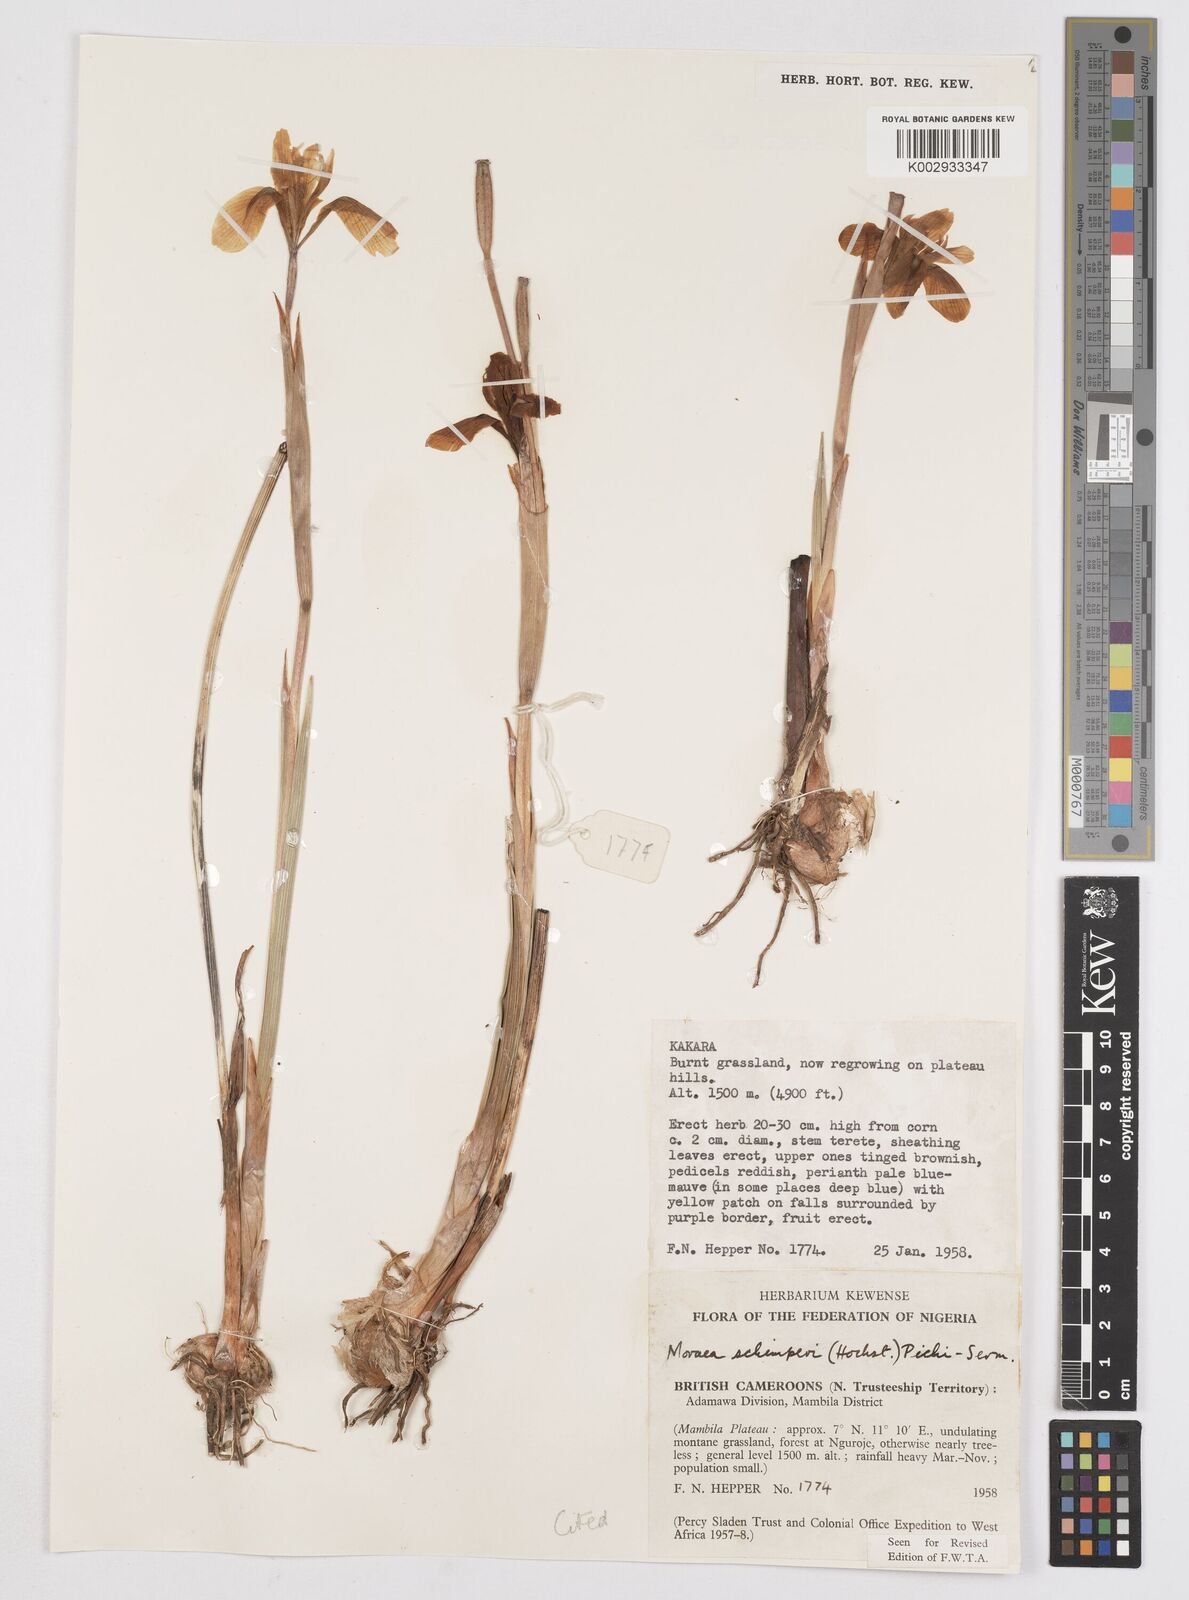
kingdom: Plantae
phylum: Tracheophyta
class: Liliopsida
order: Asparagales
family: Iridaceae
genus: Moraea
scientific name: Moraea schimperi
